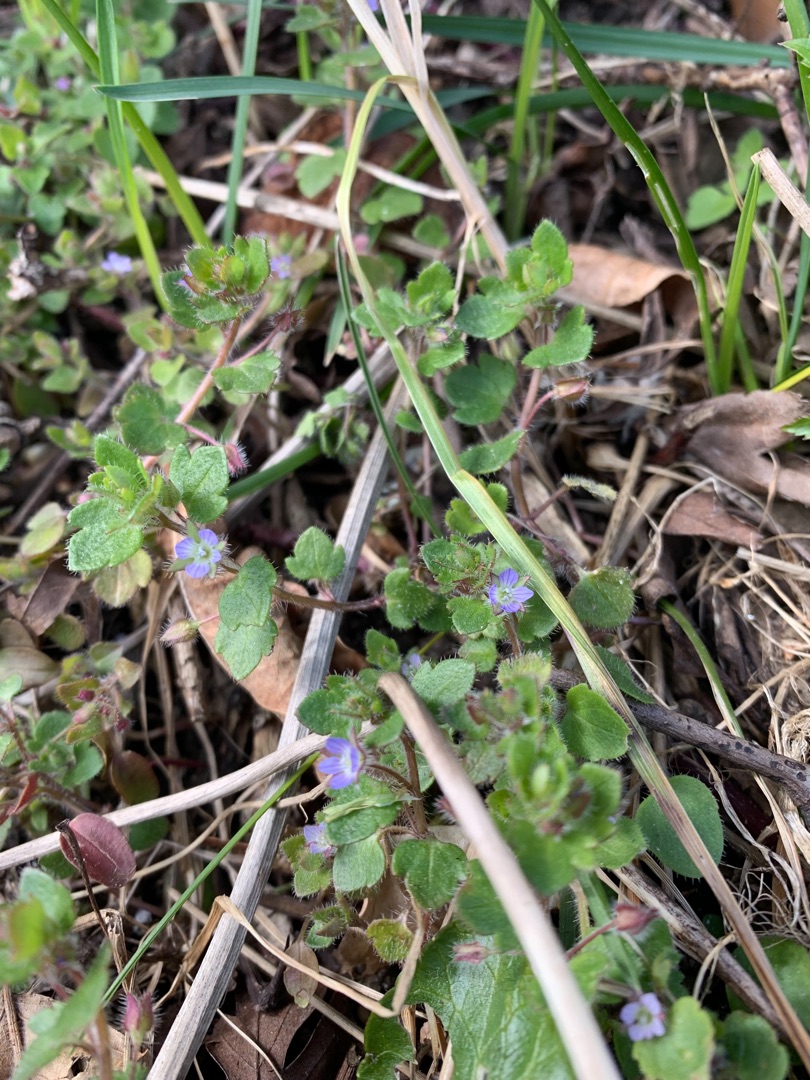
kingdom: Plantae
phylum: Tracheophyta
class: Magnoliopsida
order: Lamiales
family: Plantaginaceae
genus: Veronica
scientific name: Veronica hederifolia
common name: Vedbend-ærenpris
